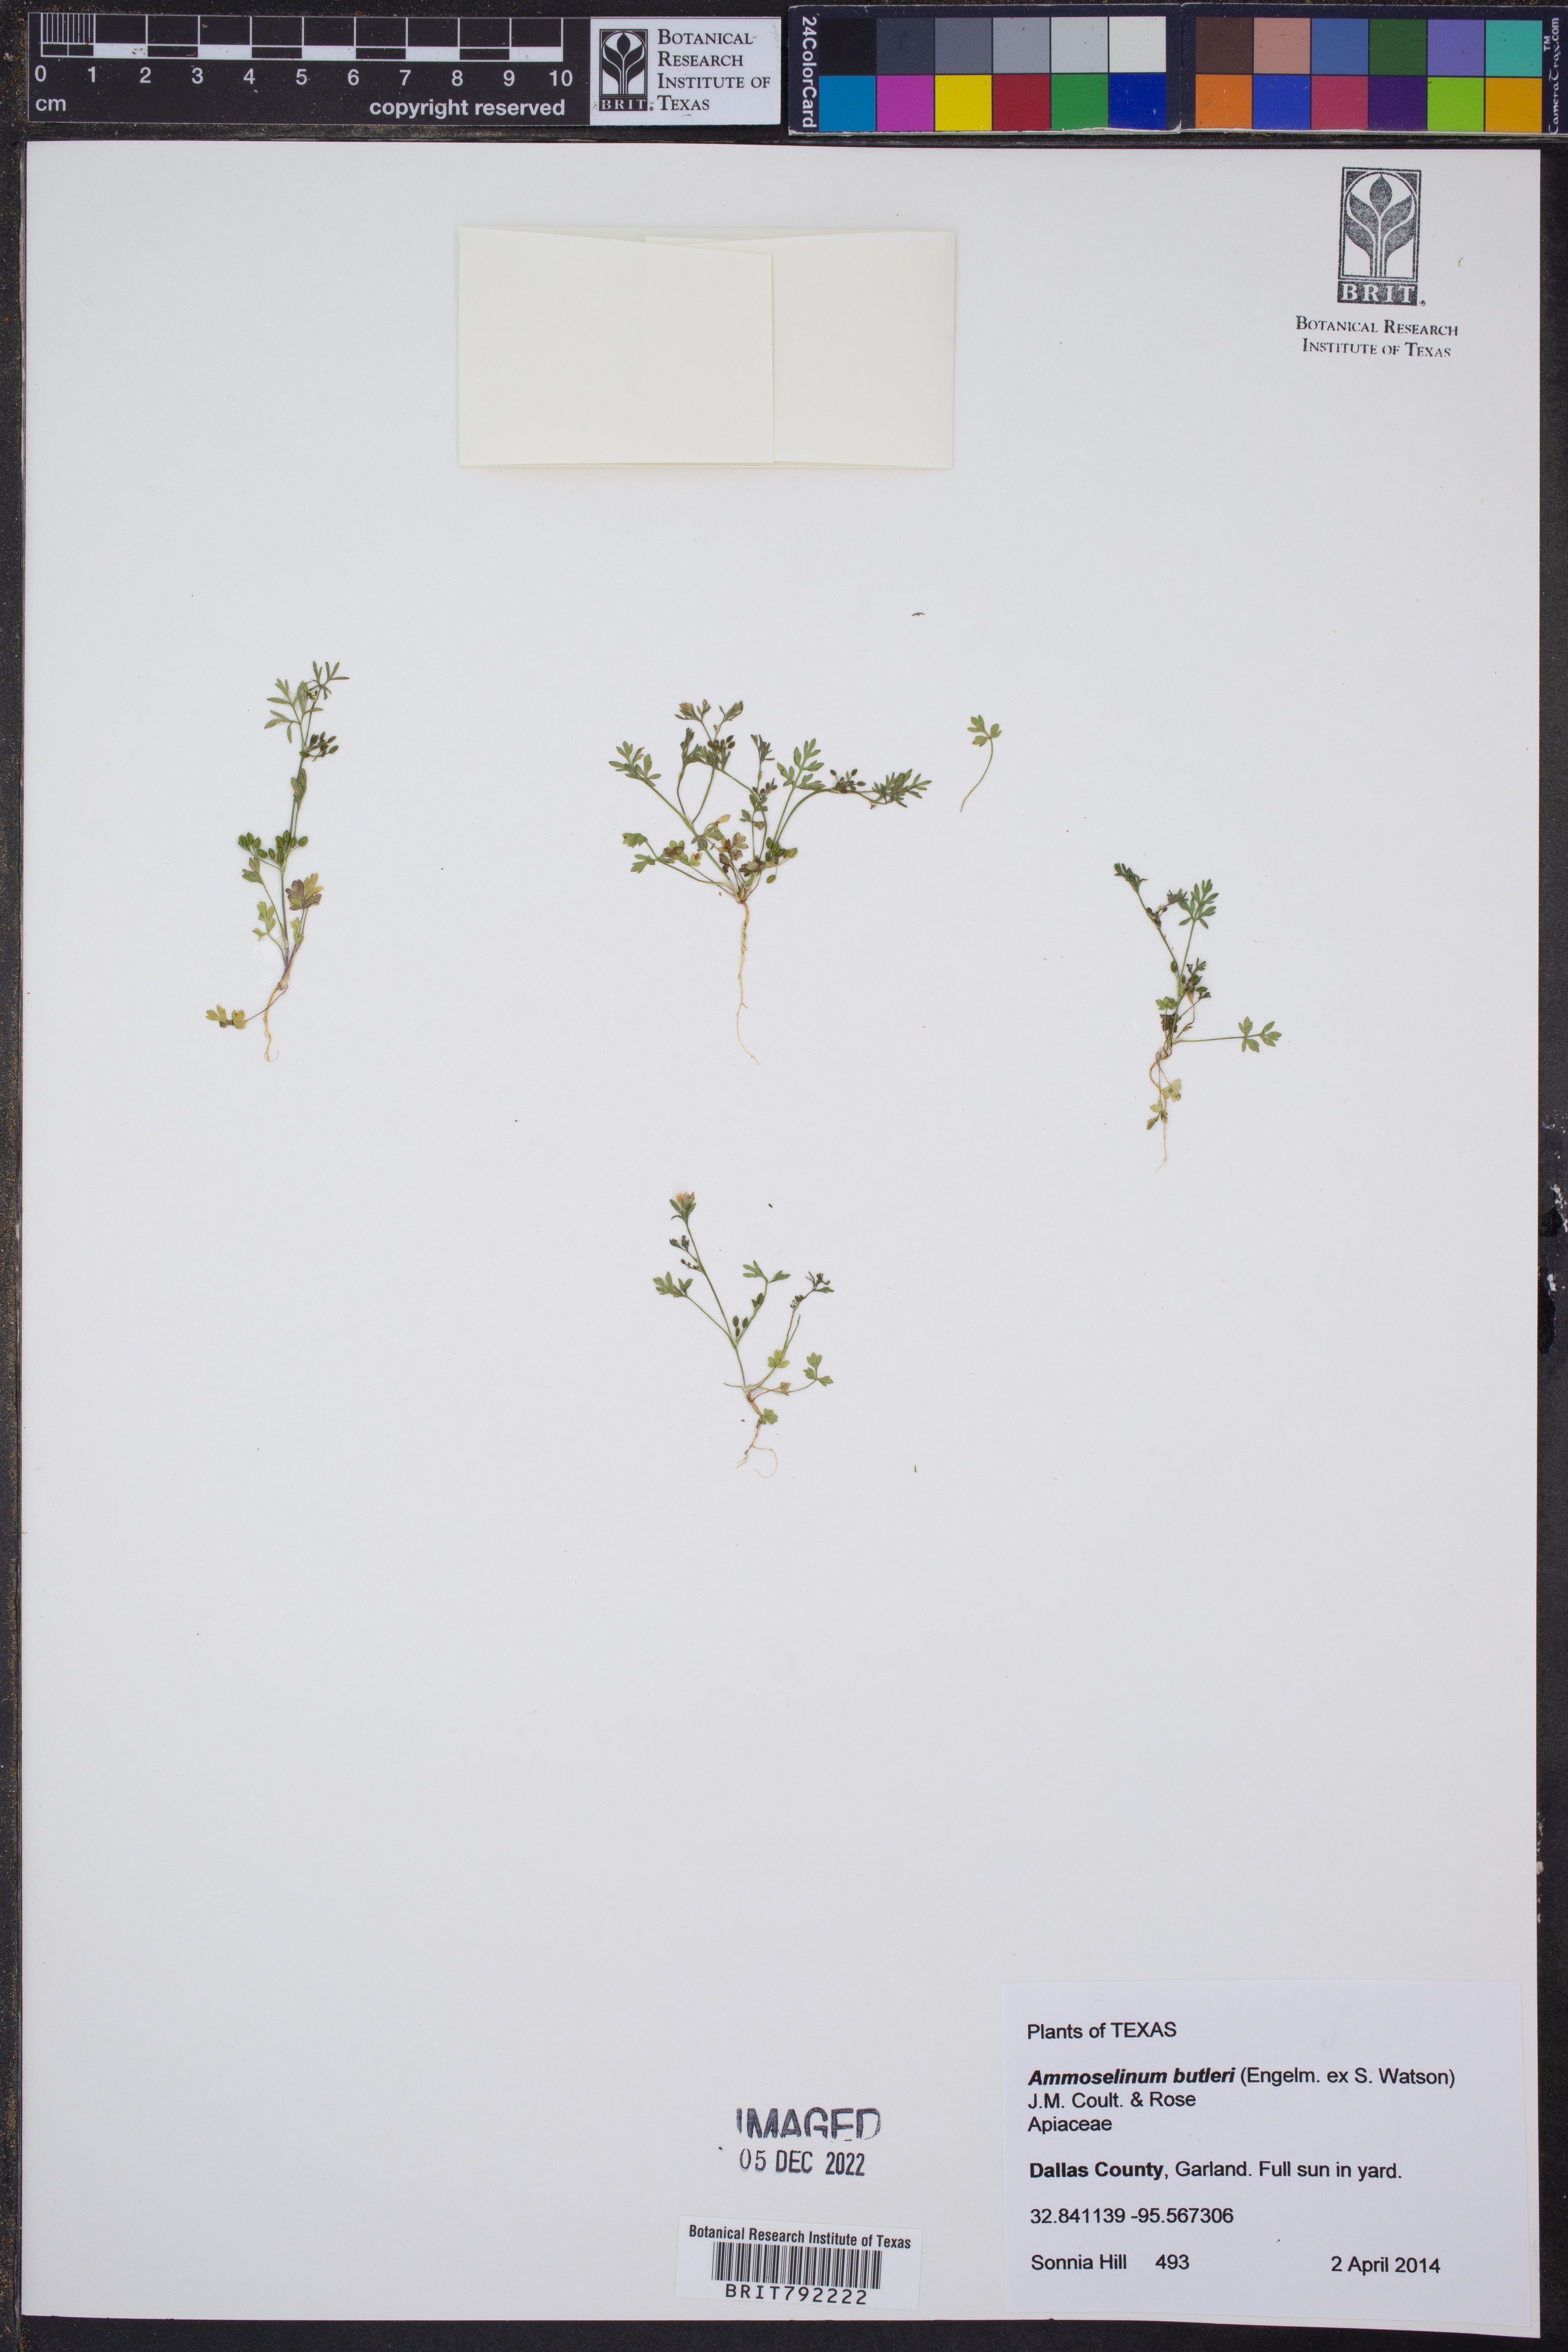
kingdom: Plantae
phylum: Tracheophyta
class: Magnoliopsida
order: Apiales
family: Apiaceae
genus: Ammoselinum
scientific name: Ammoselinum butleri
